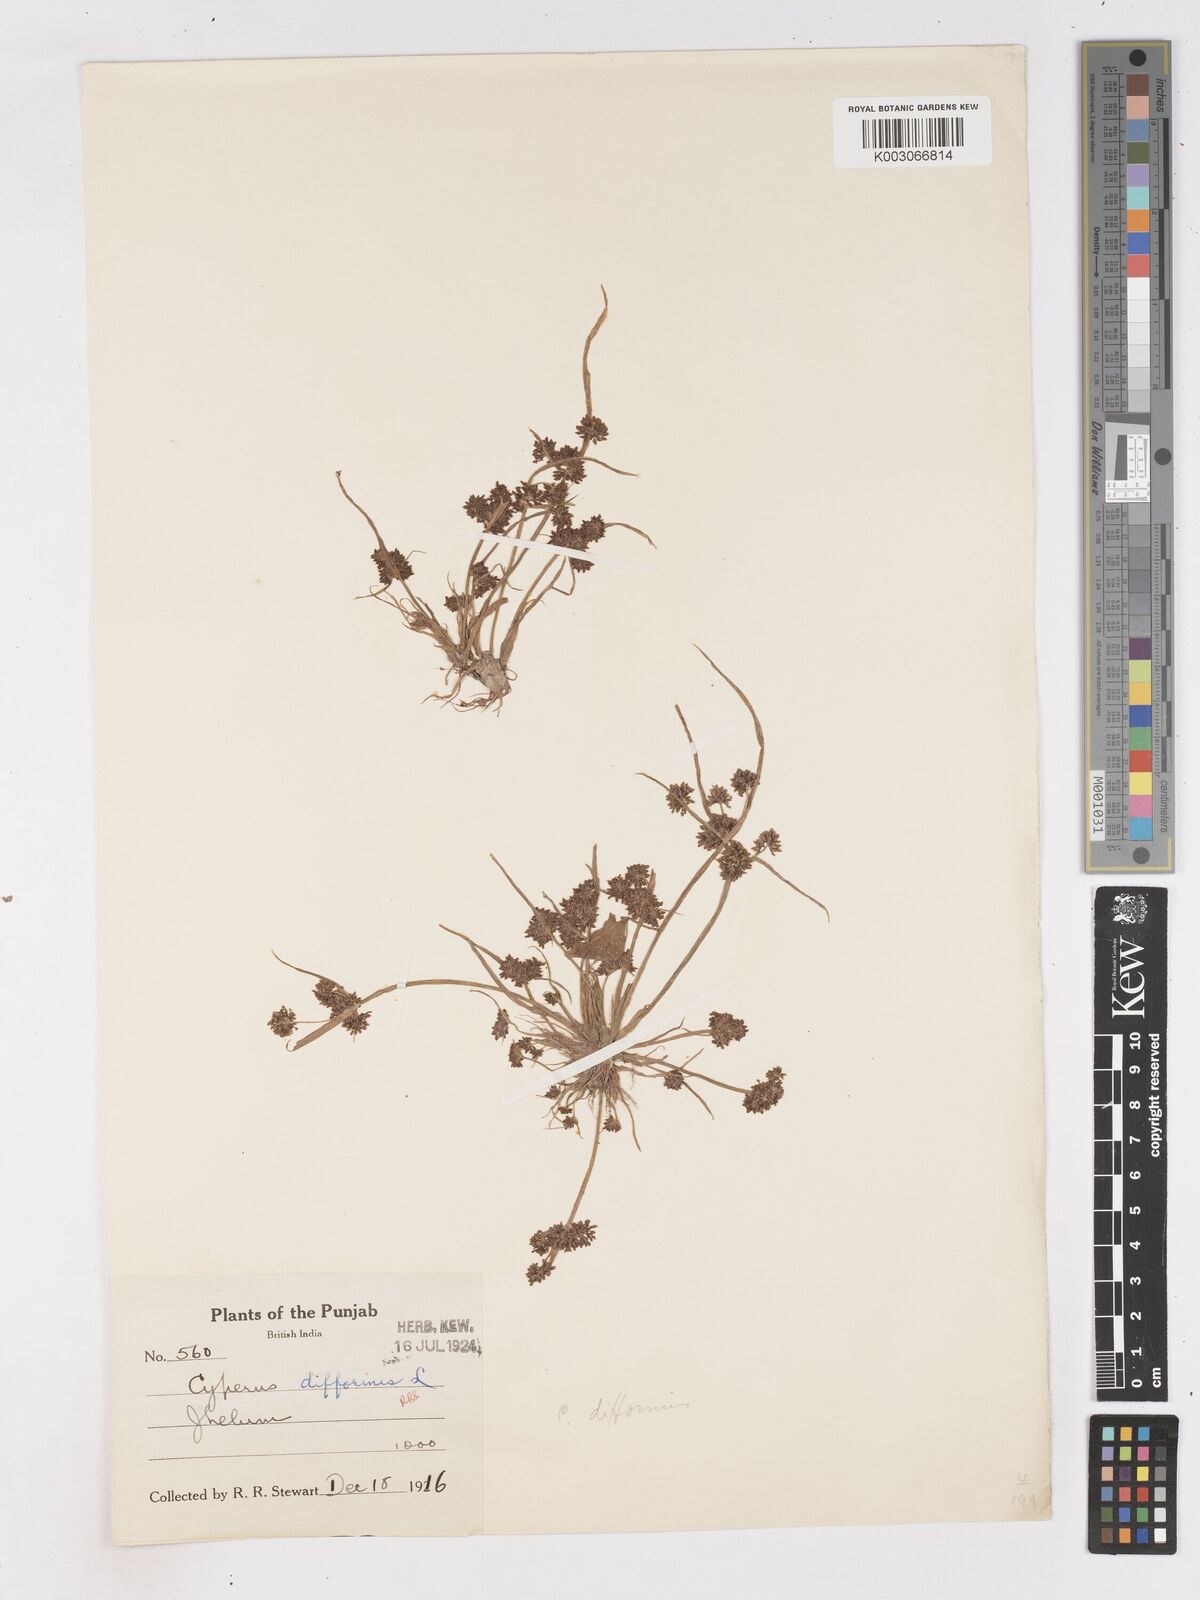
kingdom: Plantae
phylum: Tracheophyta
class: Liliopsida
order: Poales
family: Cyperaceae
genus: Cyperus
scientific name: Cyperus difformis
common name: Variable flatsedge
